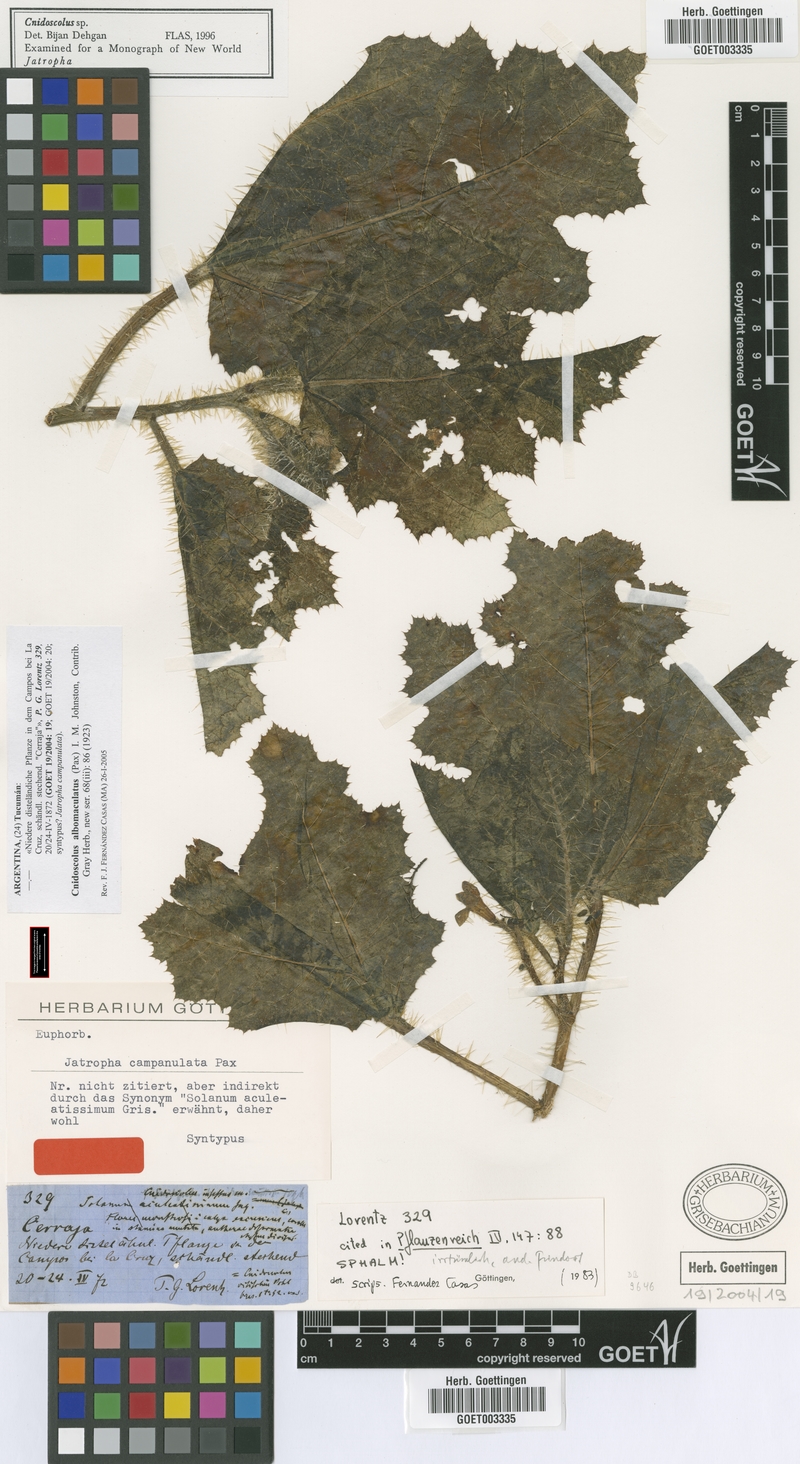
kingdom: Plantae
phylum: Tracheophyta
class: Magnoliopsida
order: Malpighiales
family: Euphorbiaceae
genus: Cnidoscolus
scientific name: Cnidoscolus albomaculatus
